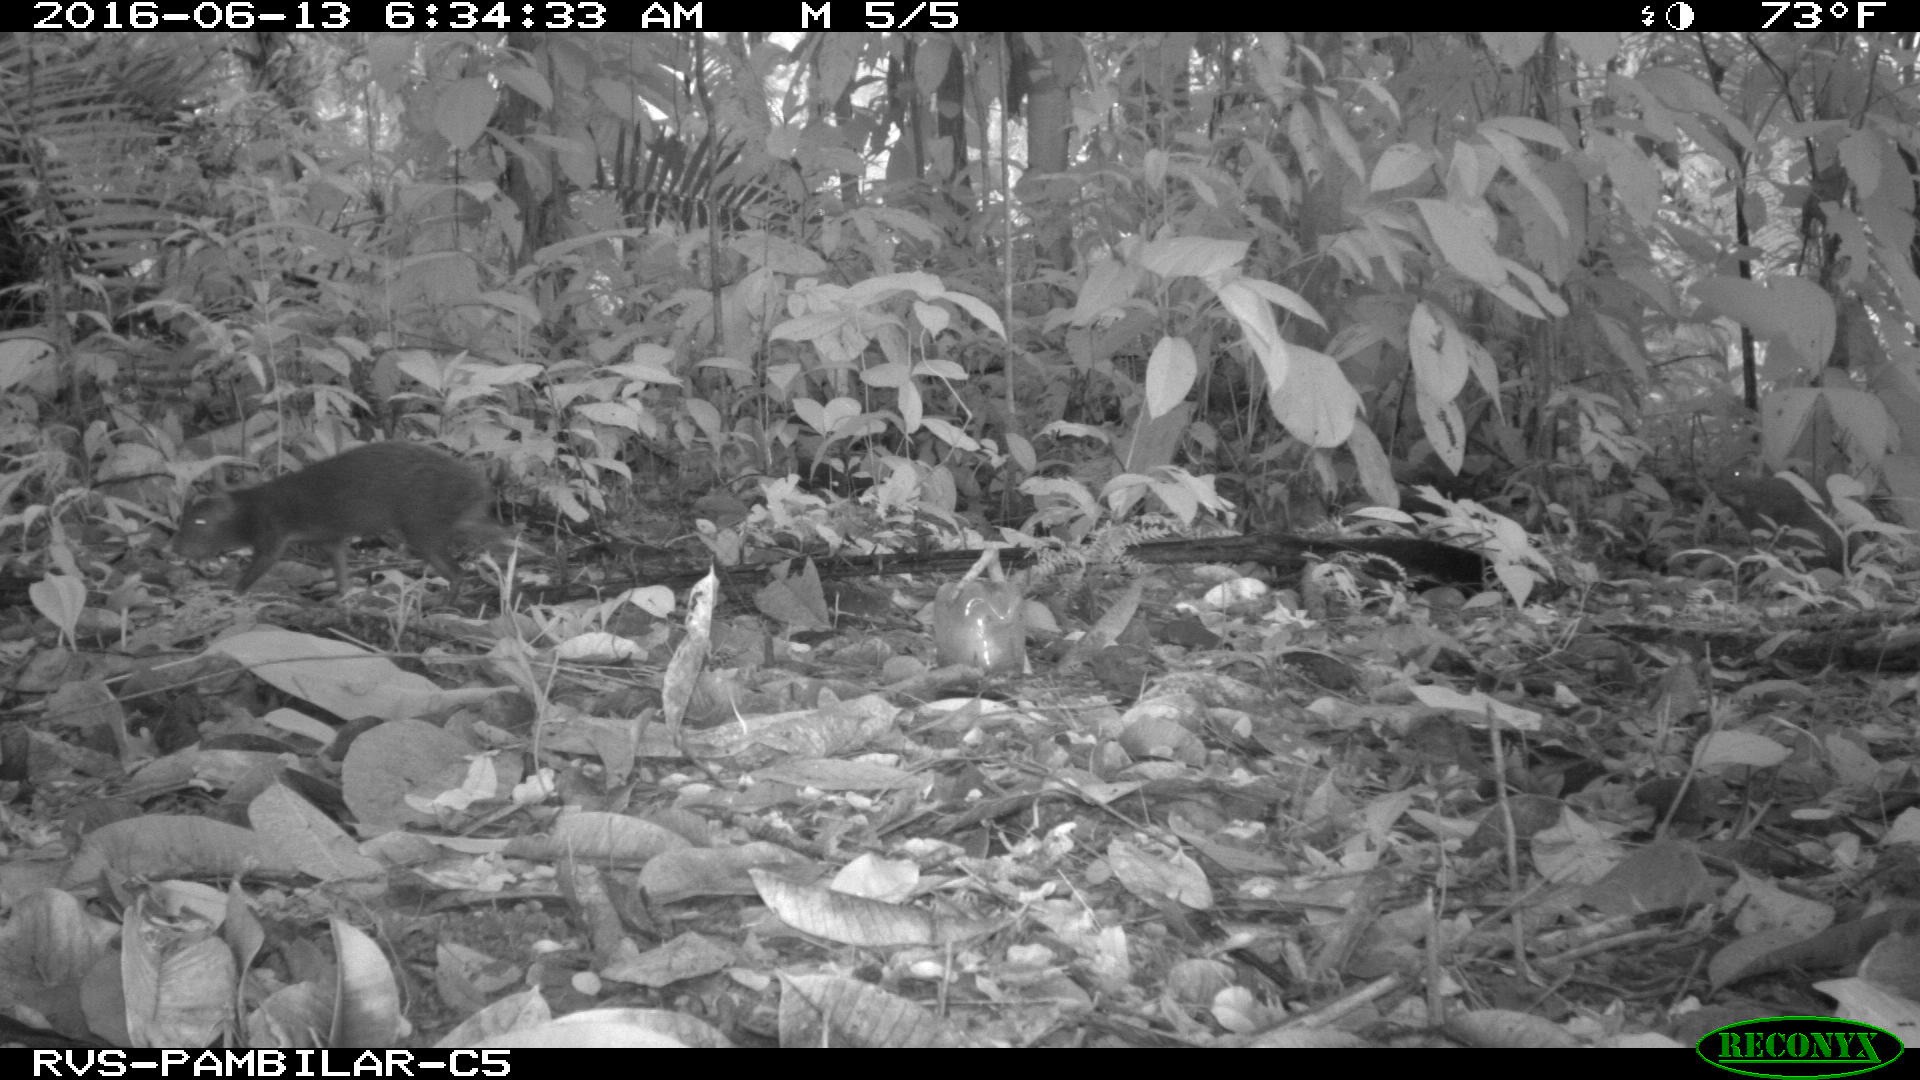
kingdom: Animalia
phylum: Chordata
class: Mammalia
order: Rodentia
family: Dasyproctidae
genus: Dasyprocta
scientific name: Dasyprocta punctata
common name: Central american agouti
